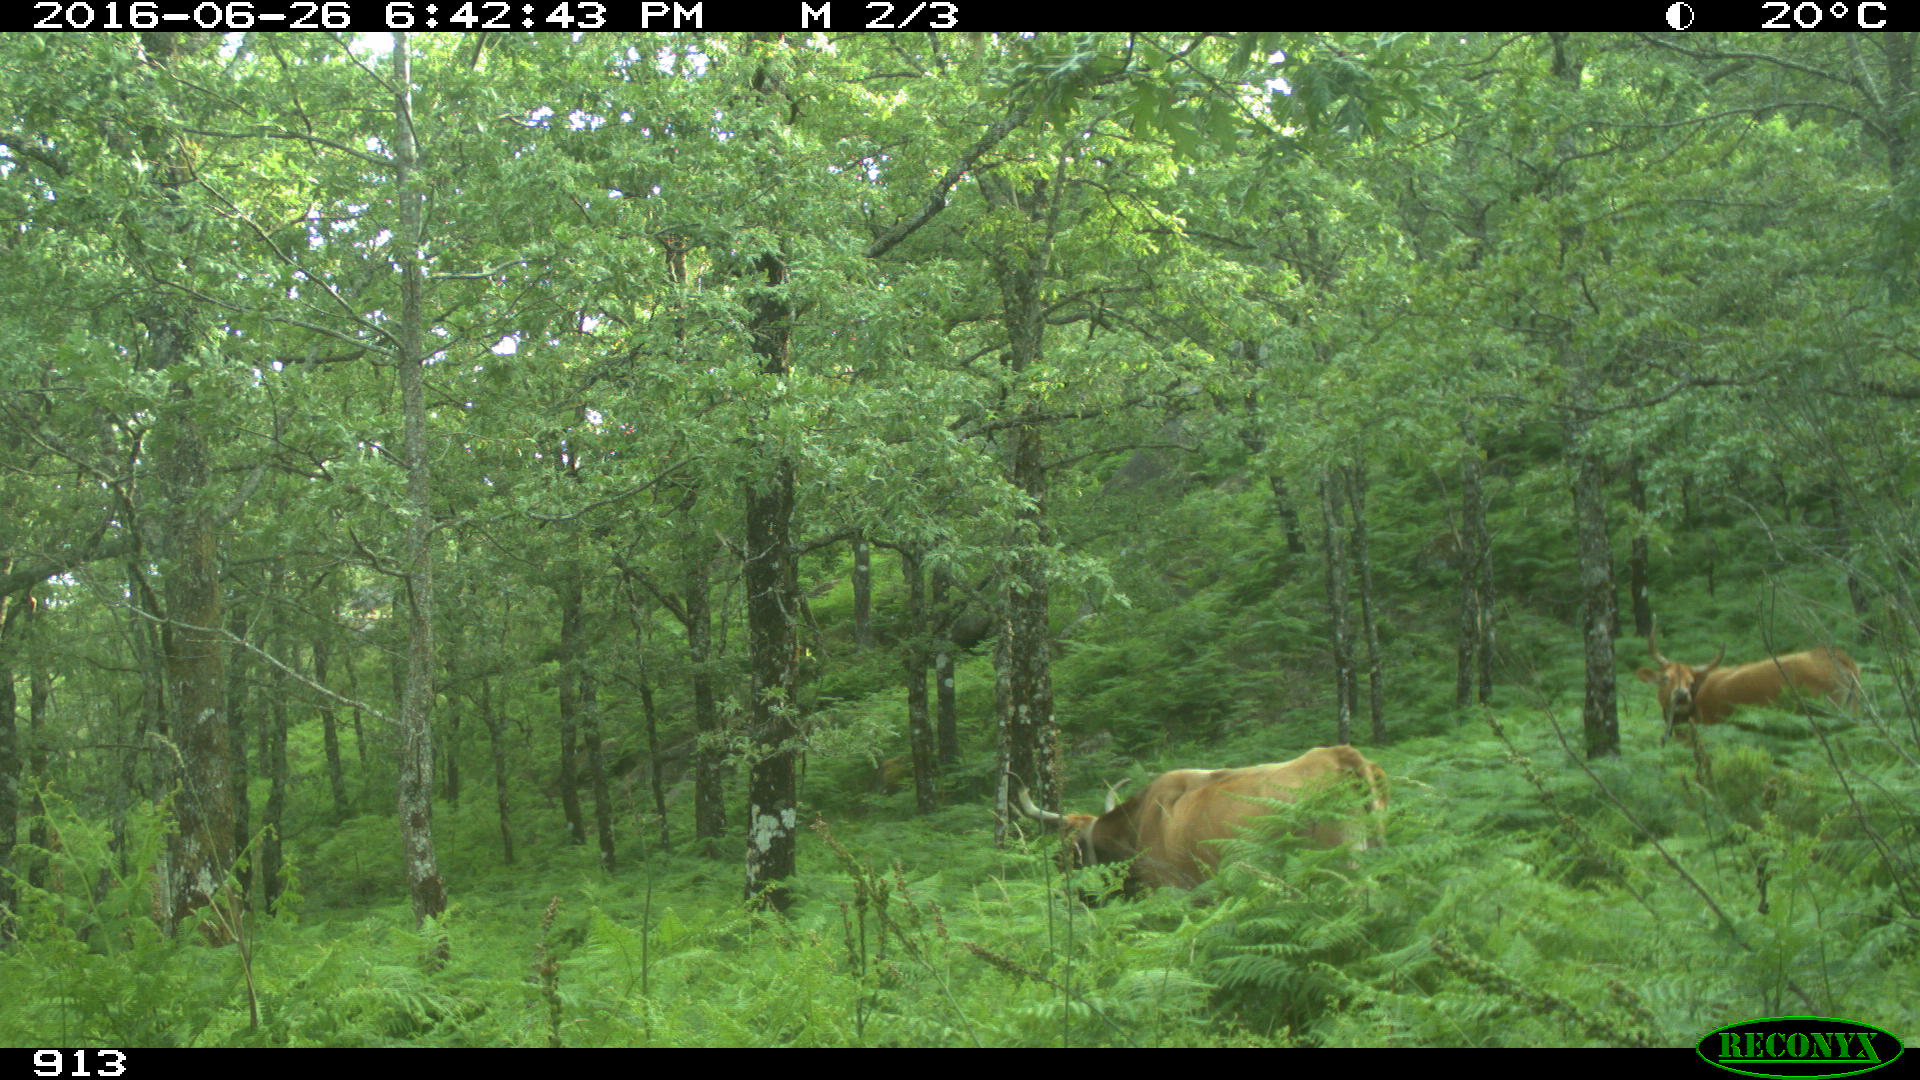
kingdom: Animalia
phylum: Chordata
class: Mammalia
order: Artiodactyla
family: Bovidae
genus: Bos
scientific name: Bos taurus
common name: Domesticated cattle
